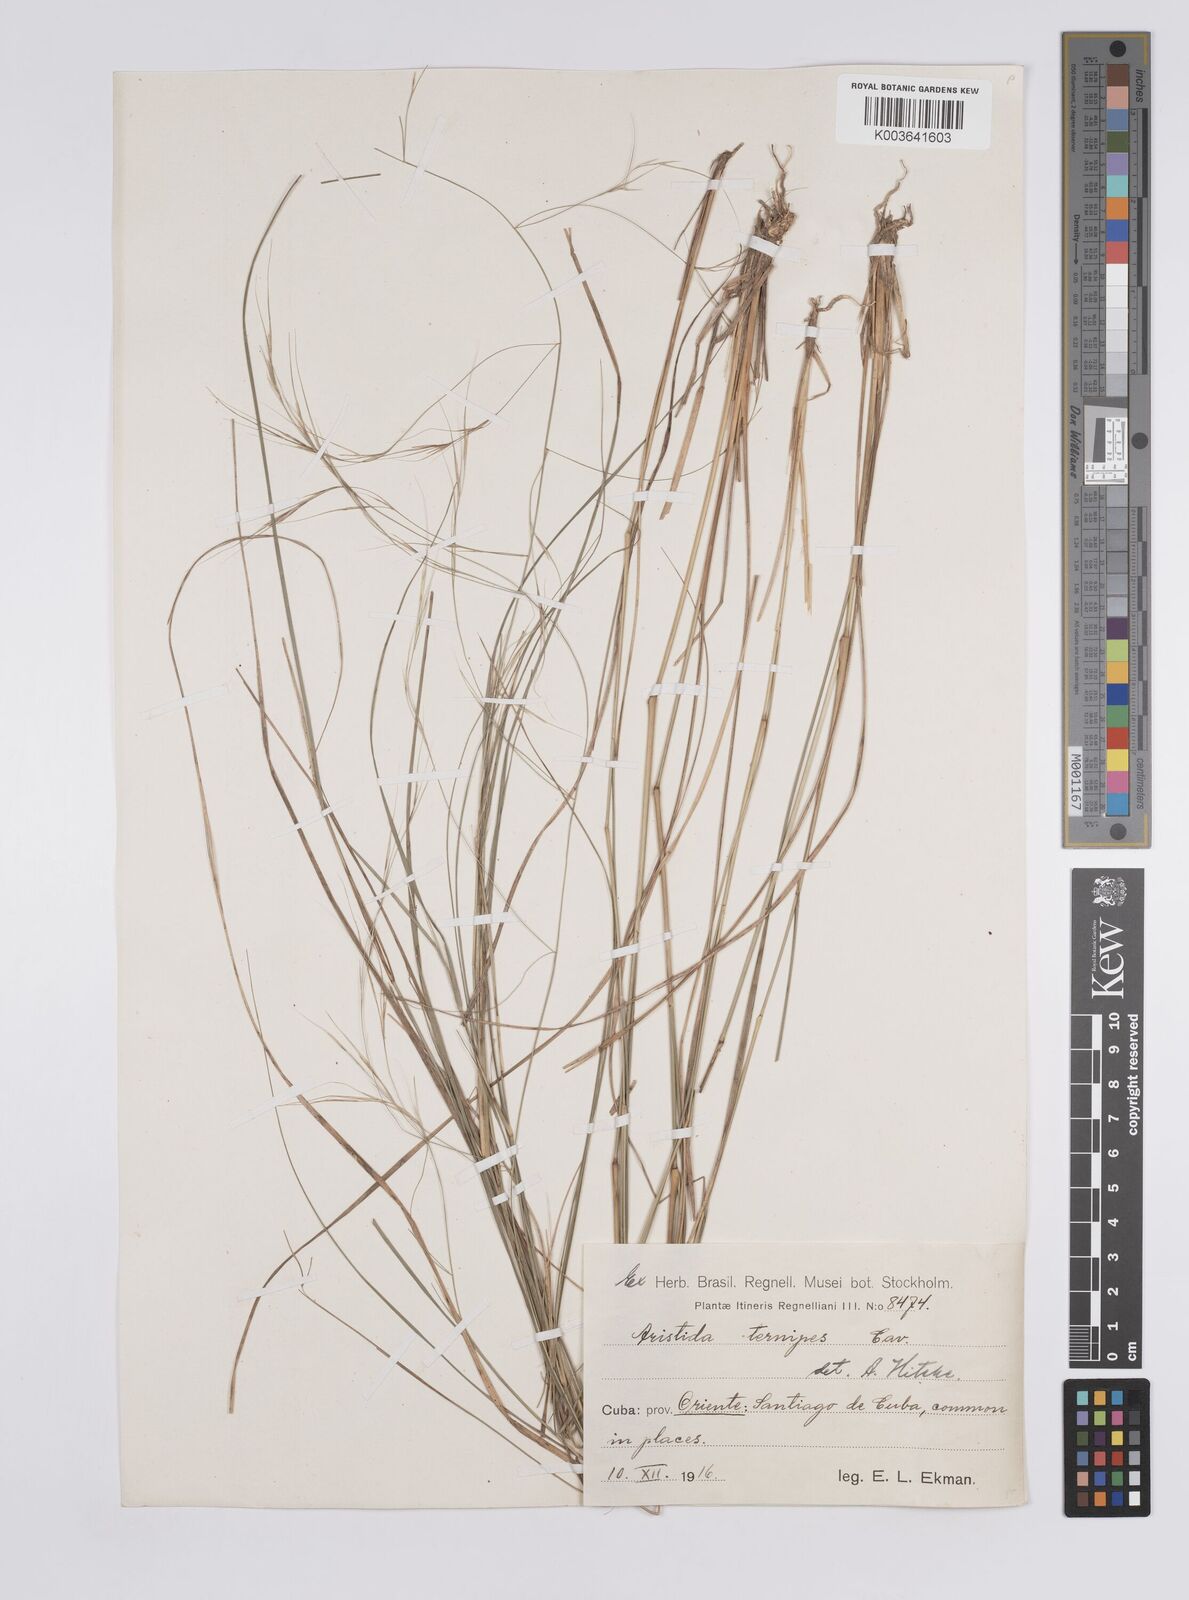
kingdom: Plantae
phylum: Tracheophyta
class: Liliopsida
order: Poales
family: Poaceae
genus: Aristida
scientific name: Aristida ternipes
